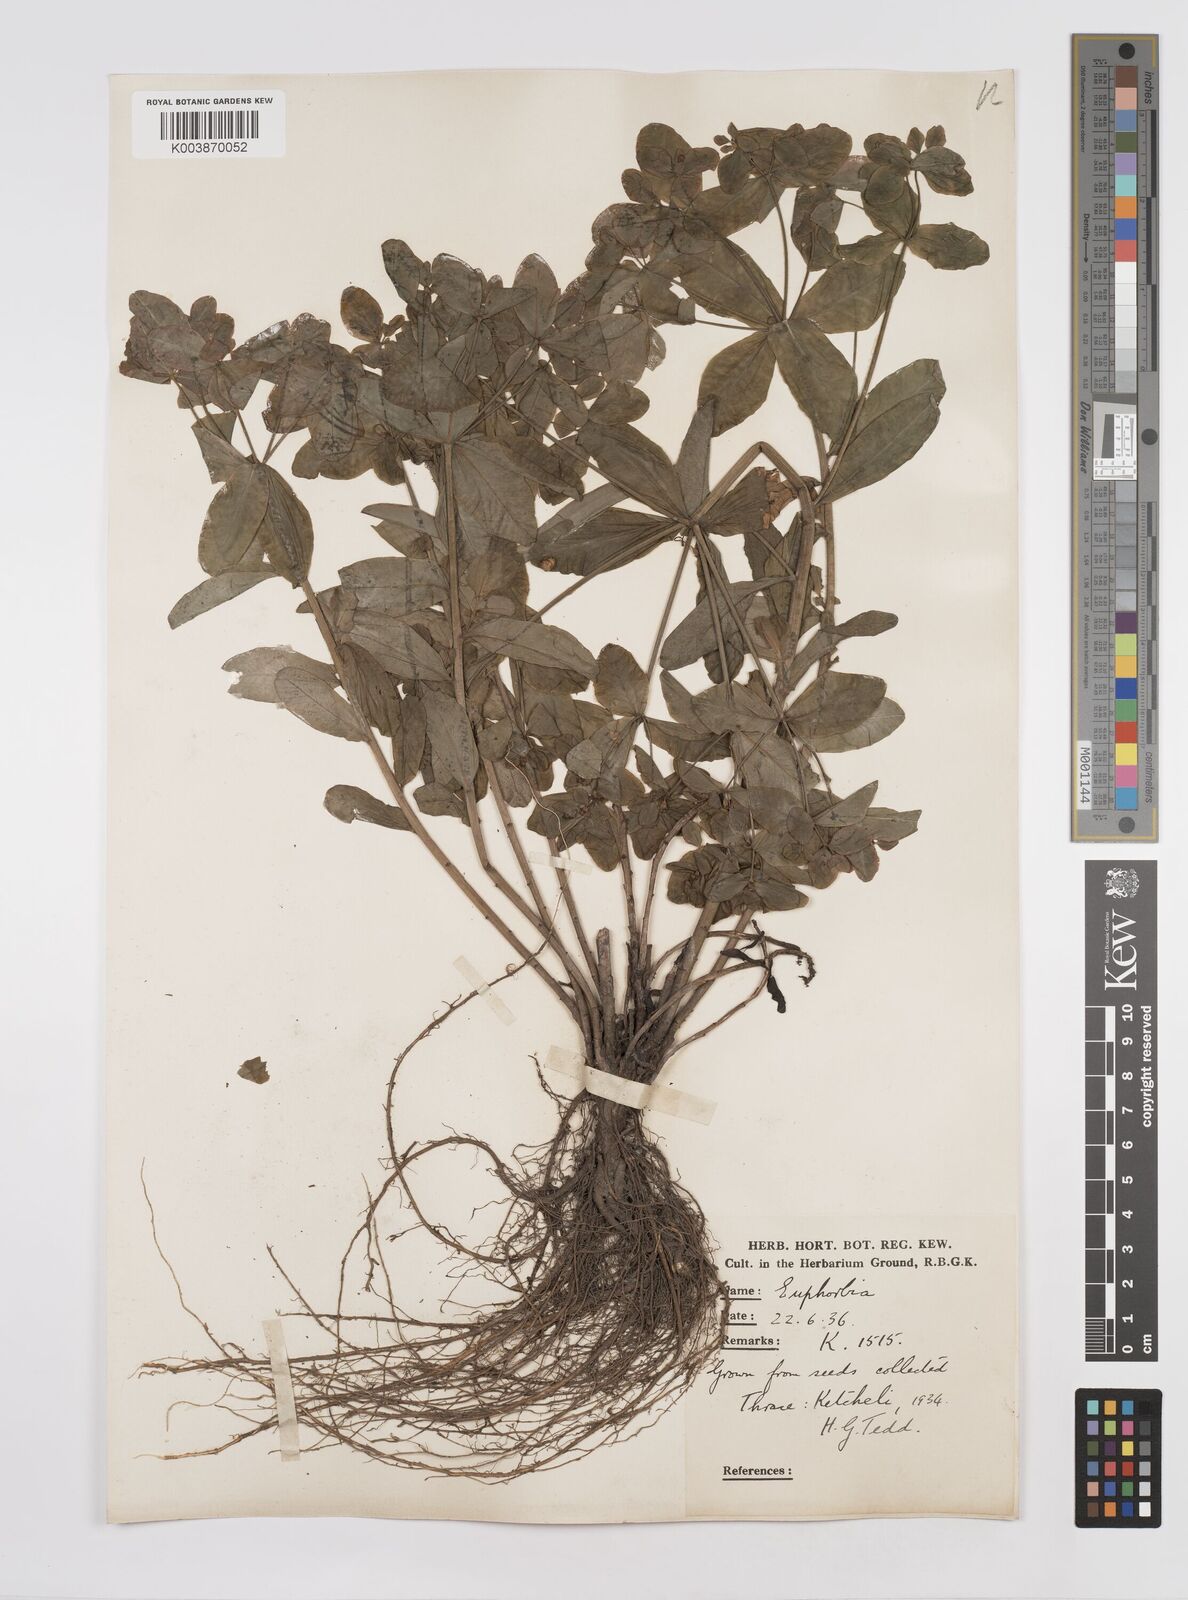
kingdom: Plantae
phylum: Tracheophyta
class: Magnoliopsida
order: Malpighiales
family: Euphorbiaceae
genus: Euphorbia
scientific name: Euphorbia epithymoides
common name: Cushion spurge
